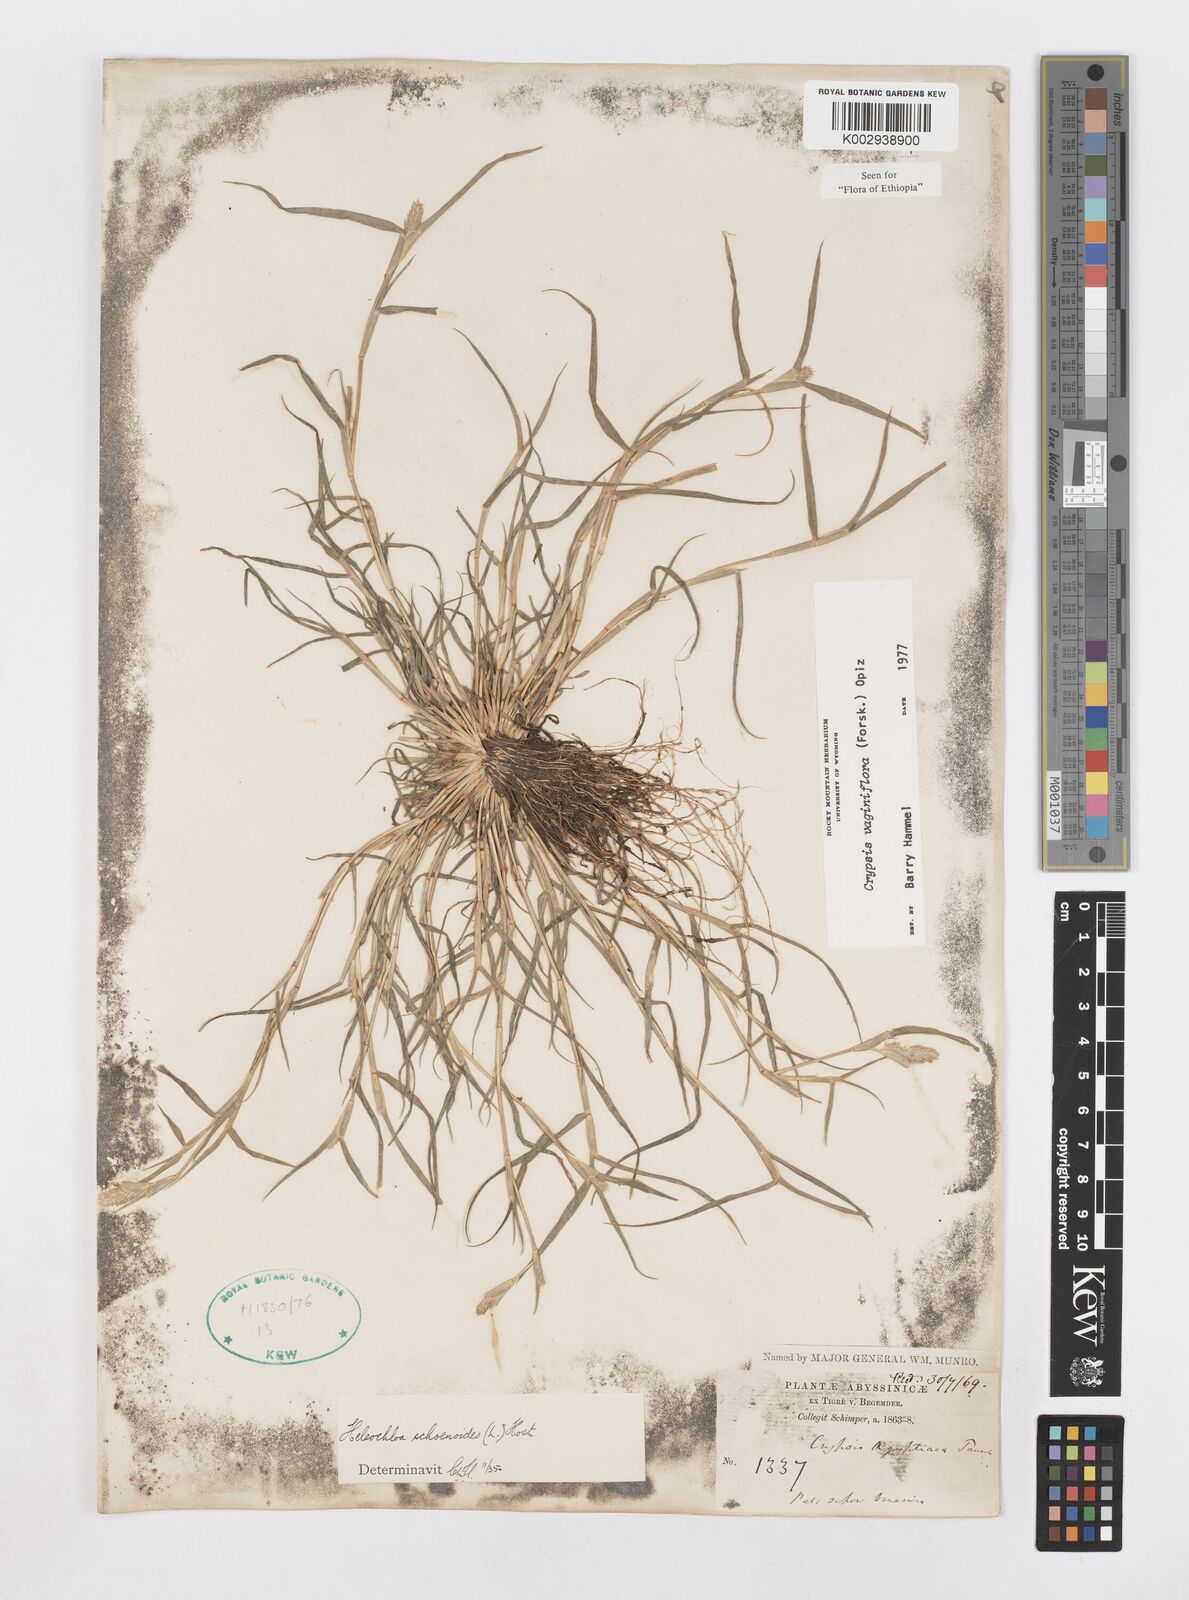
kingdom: Plantae
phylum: Tracheophyta
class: Liliopsida
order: Poales
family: Poaceae
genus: Sporobolus
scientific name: Sporobolus niliacus
